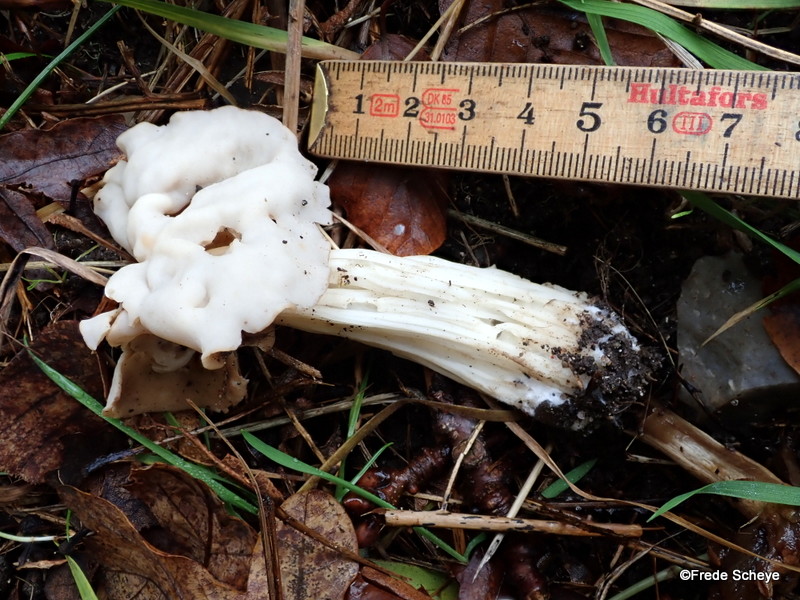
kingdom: Fungi
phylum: Ascomycota
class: Pezizomycetes
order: Pezizales
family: Helvellaceae
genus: Helvella
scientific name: Helvella crispa
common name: kruset foldhat
